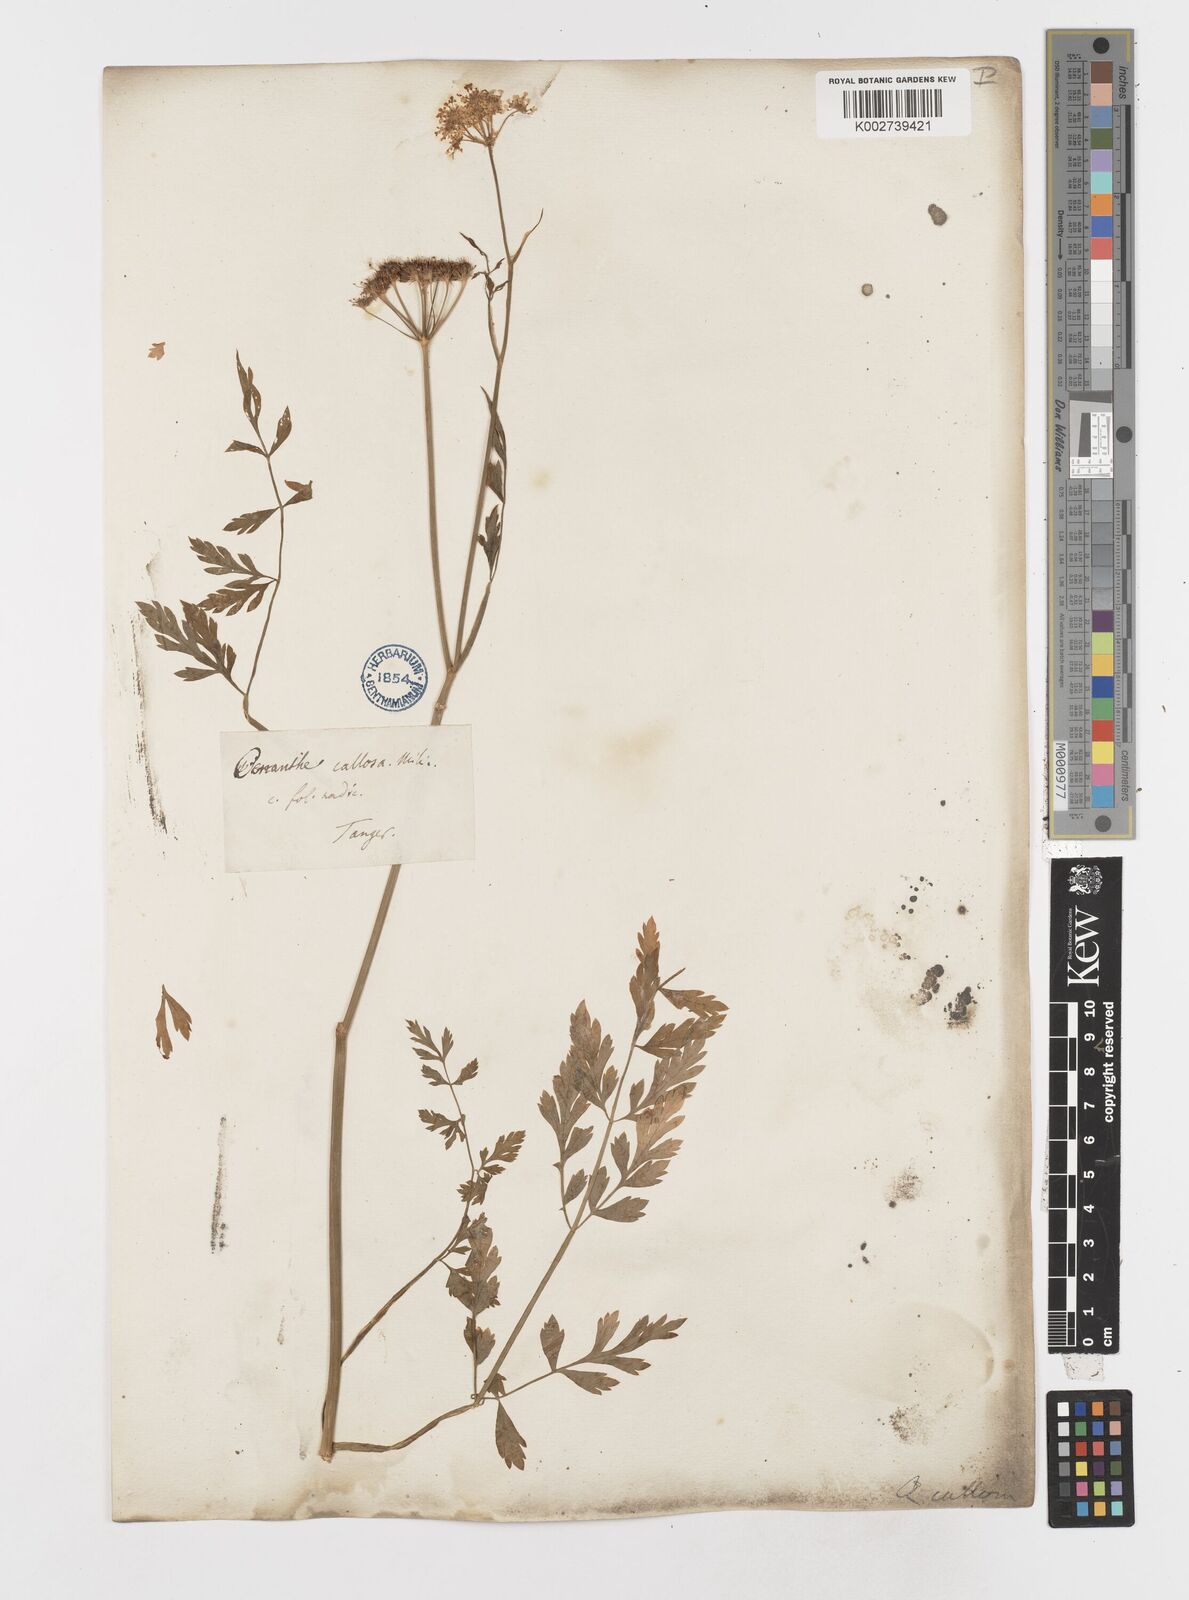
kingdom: Plantae
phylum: Tracheophyta
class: Magnoliopsida
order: Apiales
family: Apiaceae
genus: Oenanthe
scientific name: Oenanthe pimpinelloides
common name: Corky-fruited water-dropwort
